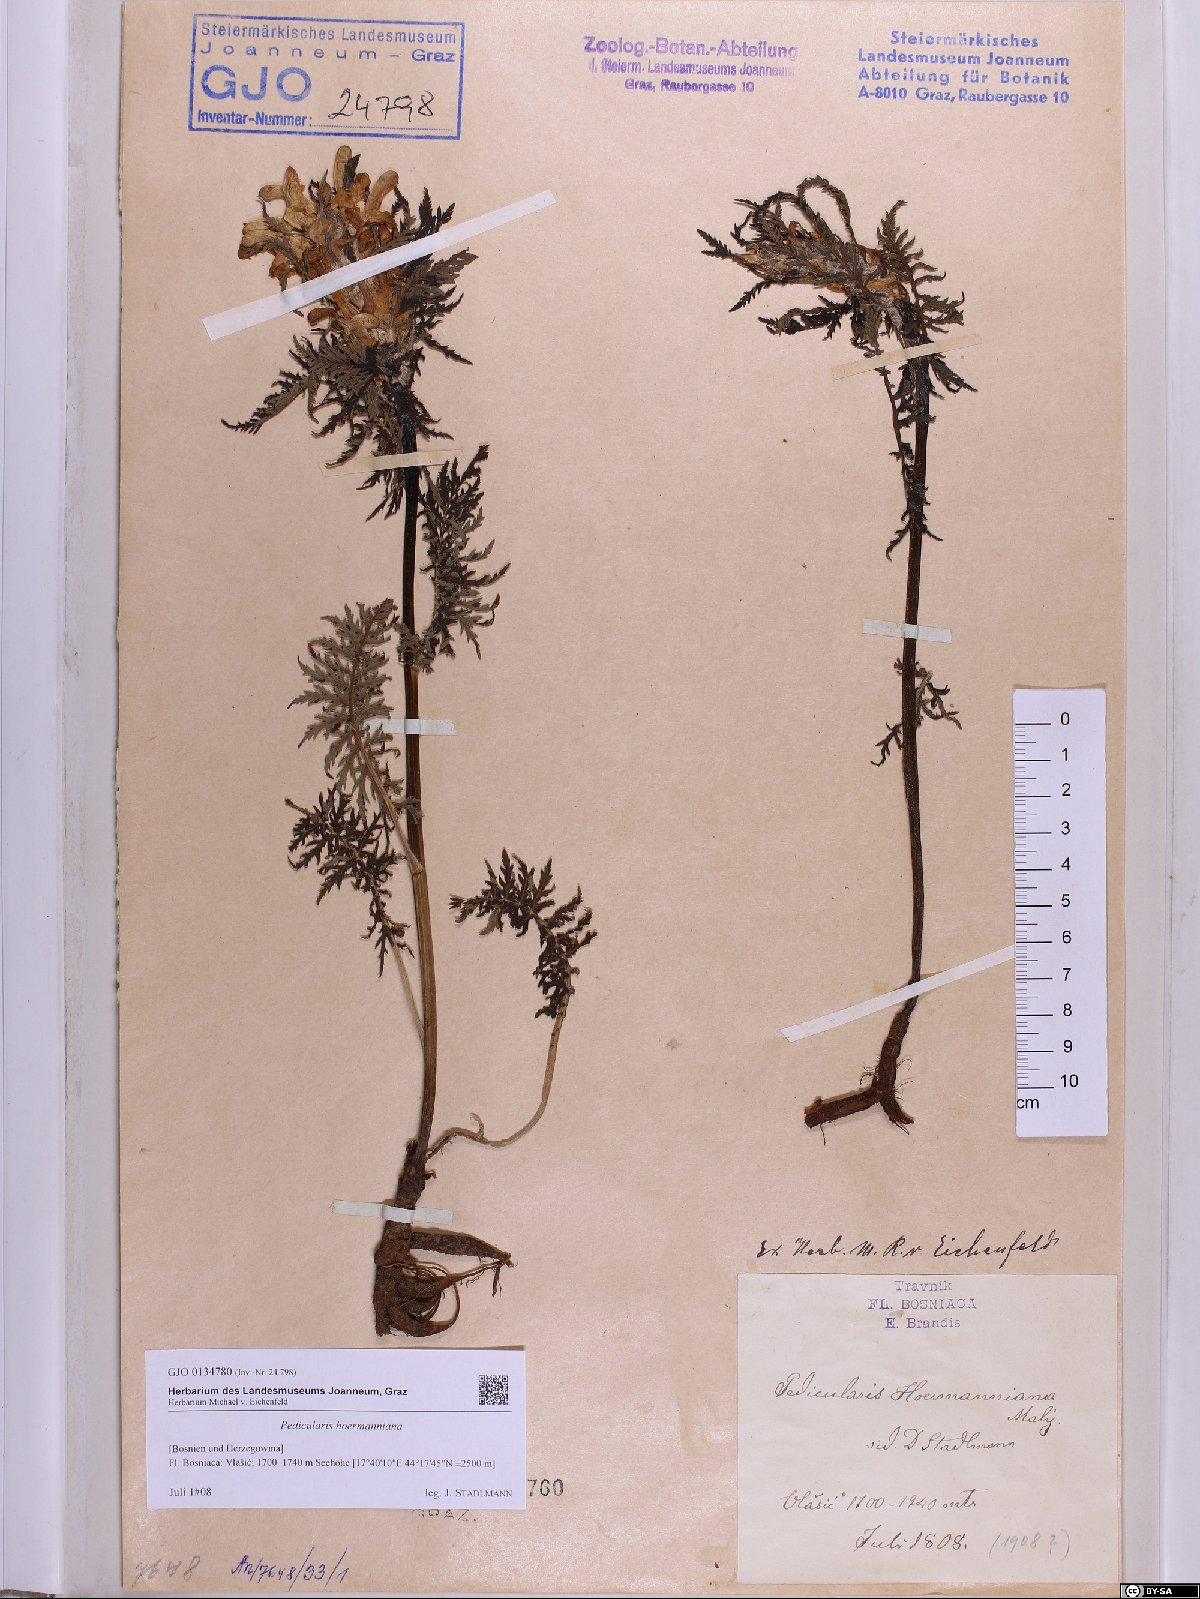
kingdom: Plantae
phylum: Tracheophyta
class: Magnoliopsida
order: Lamiales
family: Orobanchaceae
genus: Pedicularis
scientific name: Pedicularis hoermanniana
